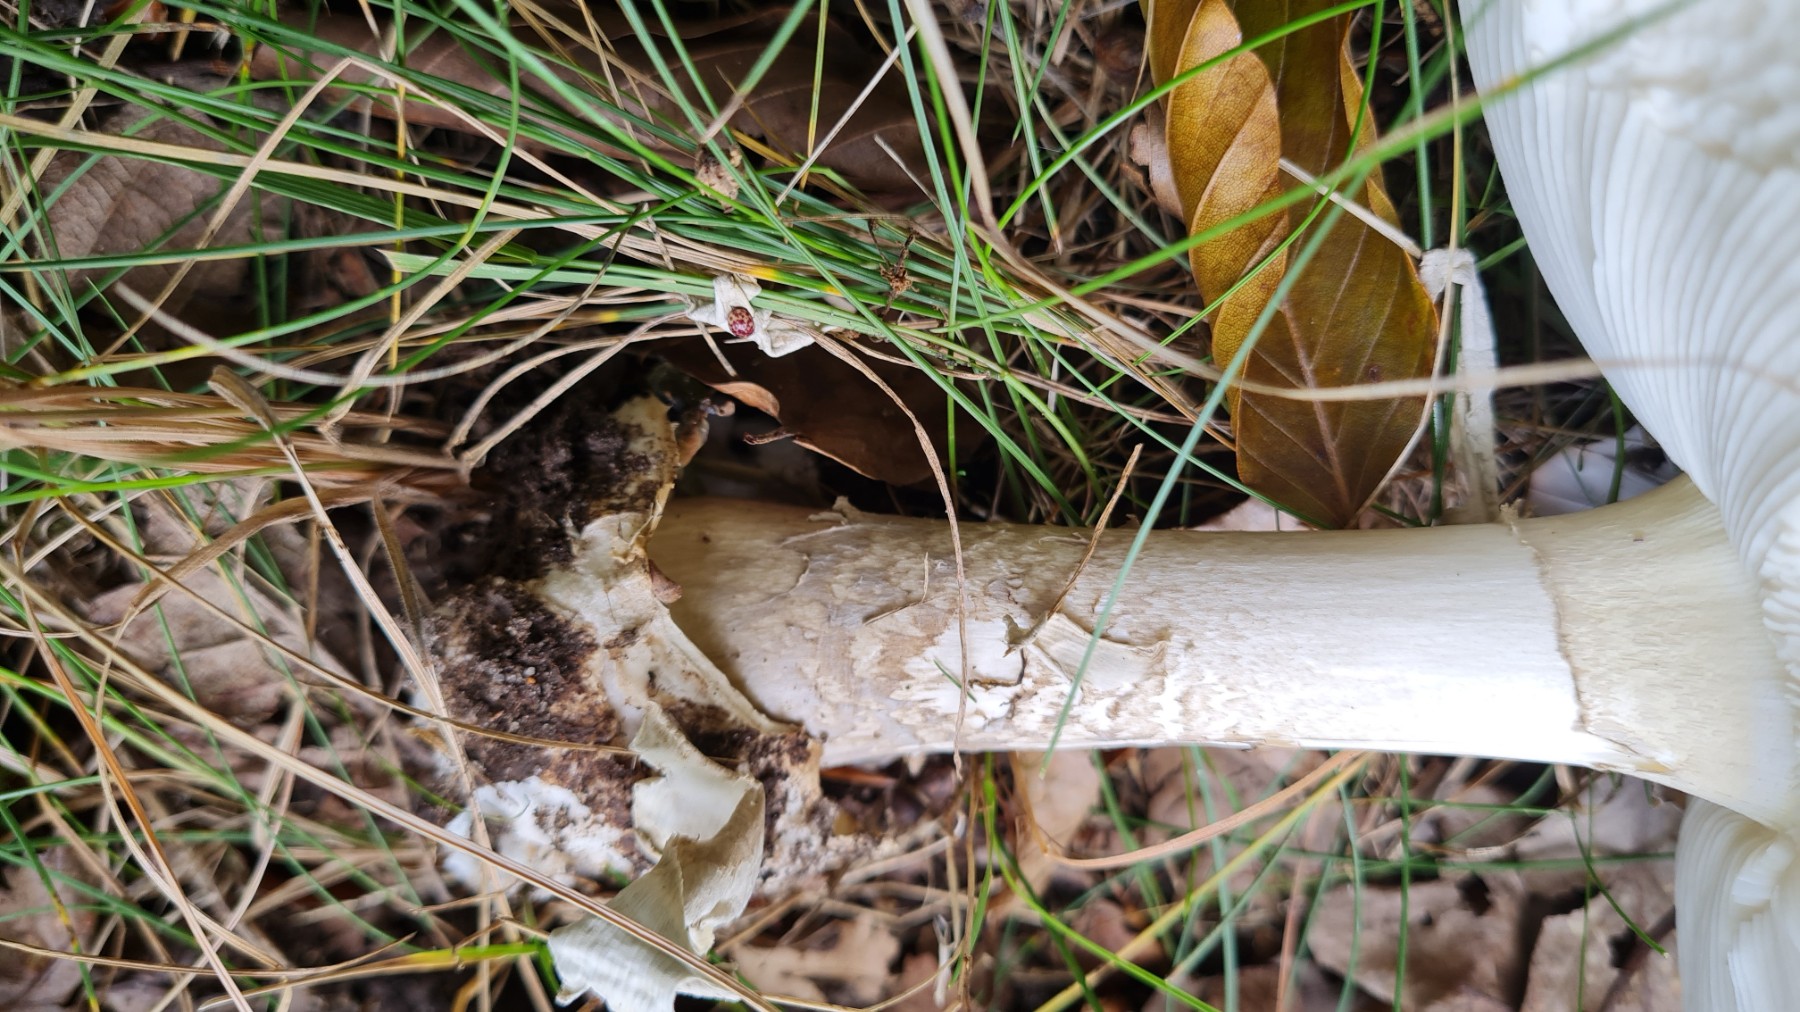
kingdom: Fungi
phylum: Basidiomycota
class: Agaricomycetes
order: Agaricales
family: Amanitaceae
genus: Amanita
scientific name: Amanita phalloides
